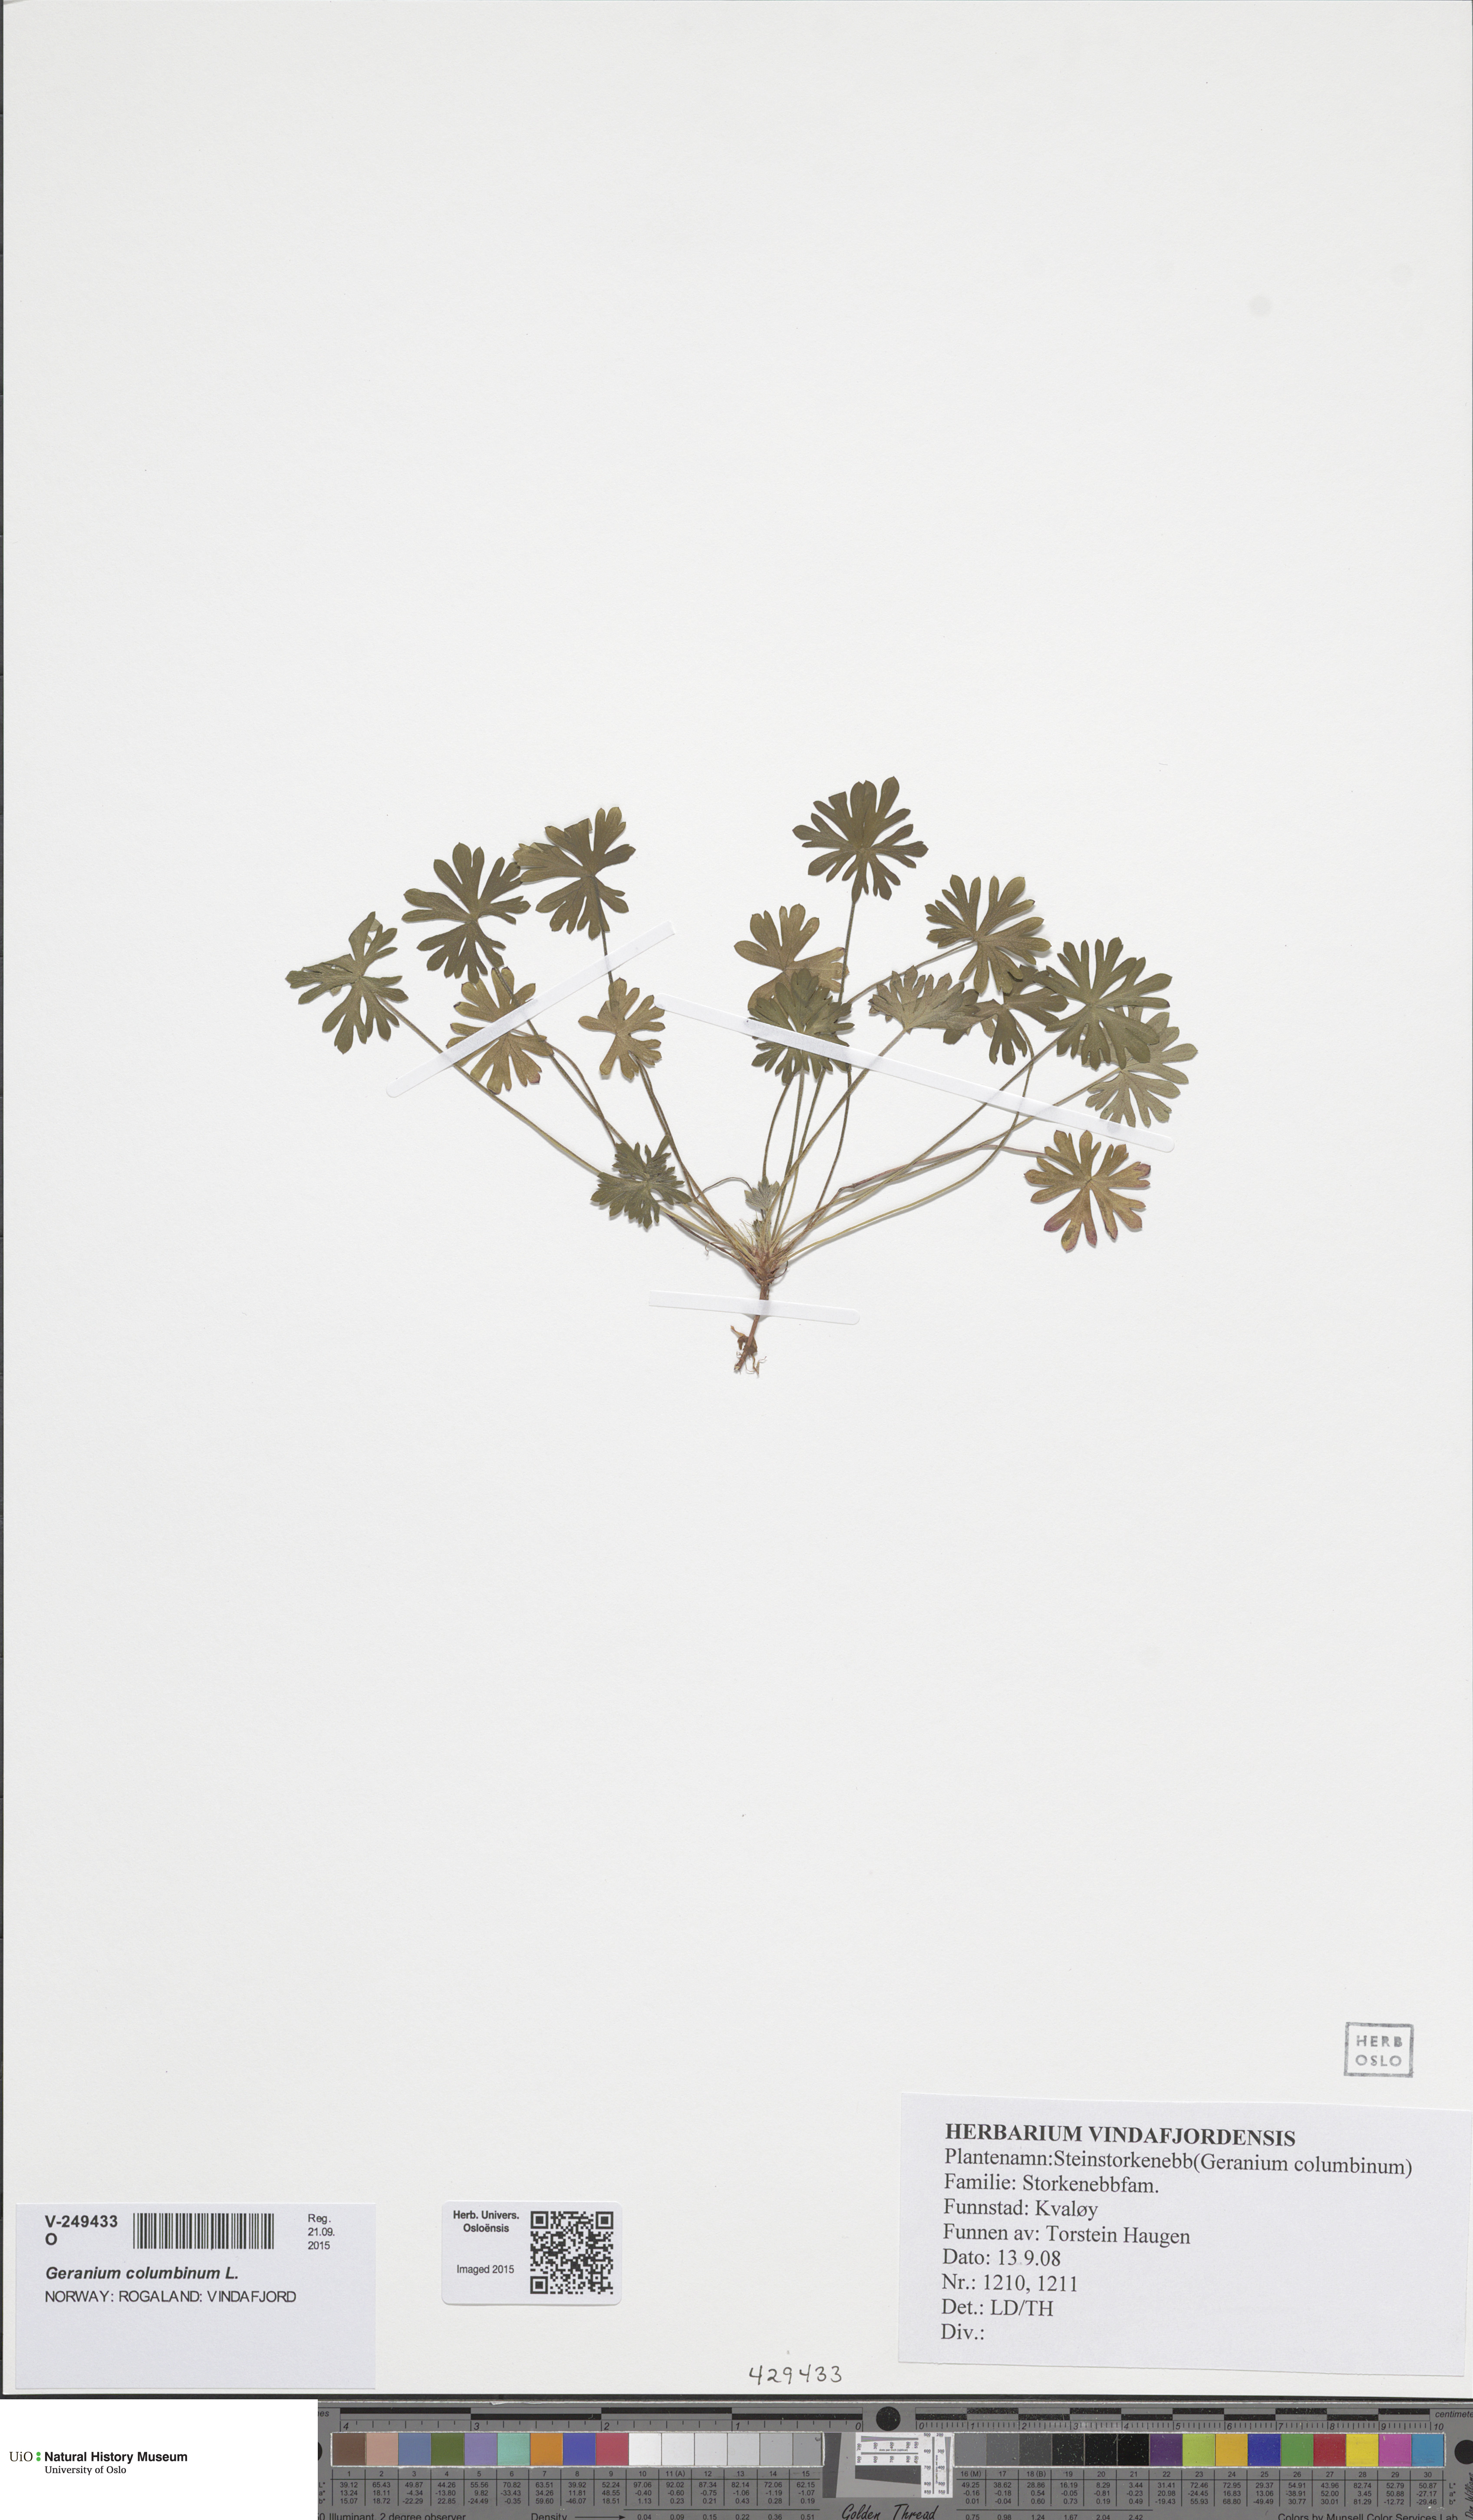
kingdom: Plantae
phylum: Tracheophyta
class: Magnoliopsida
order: Geraniales
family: Geraniaceae
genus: Geranium
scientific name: Geranium columbinum
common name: Long-stalked crane's-bill
